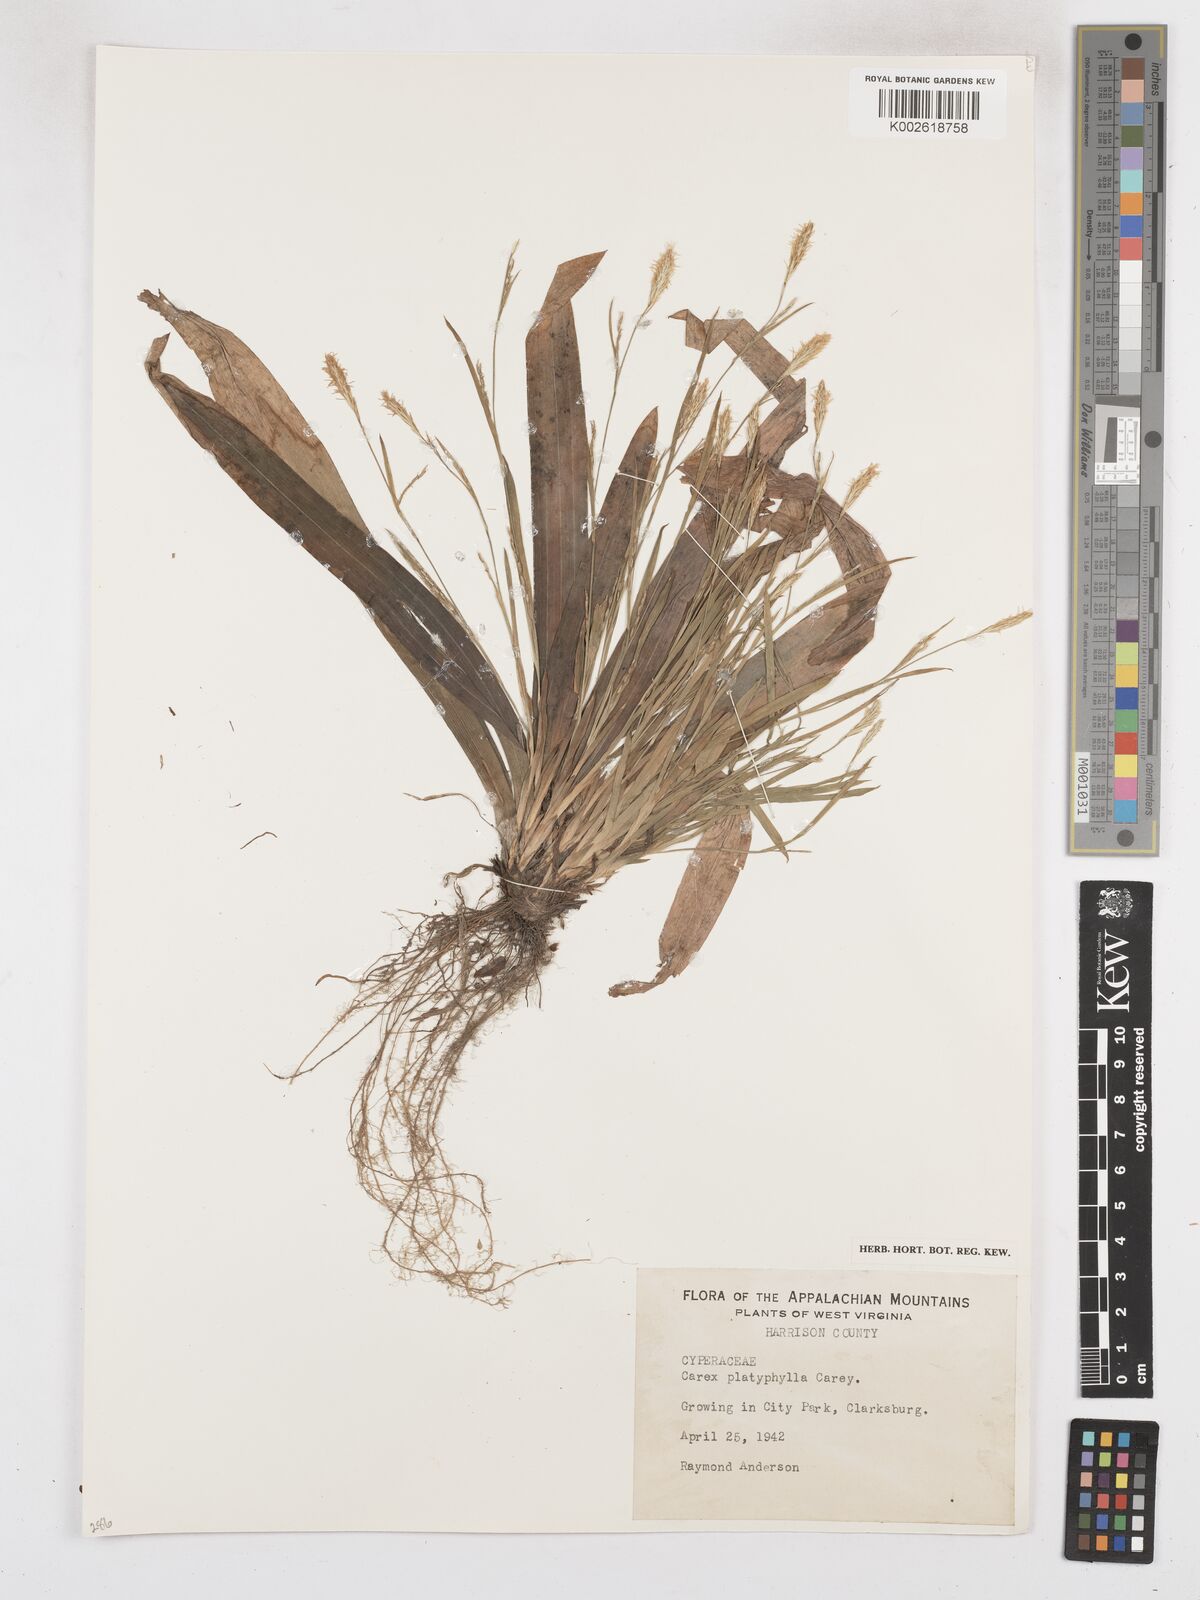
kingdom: Plantae
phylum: Tracheophyta
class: Liliopsida
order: Poales
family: Cyperaceae
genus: Carex
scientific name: Carex platyphylla
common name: Broad-leaved sedge
